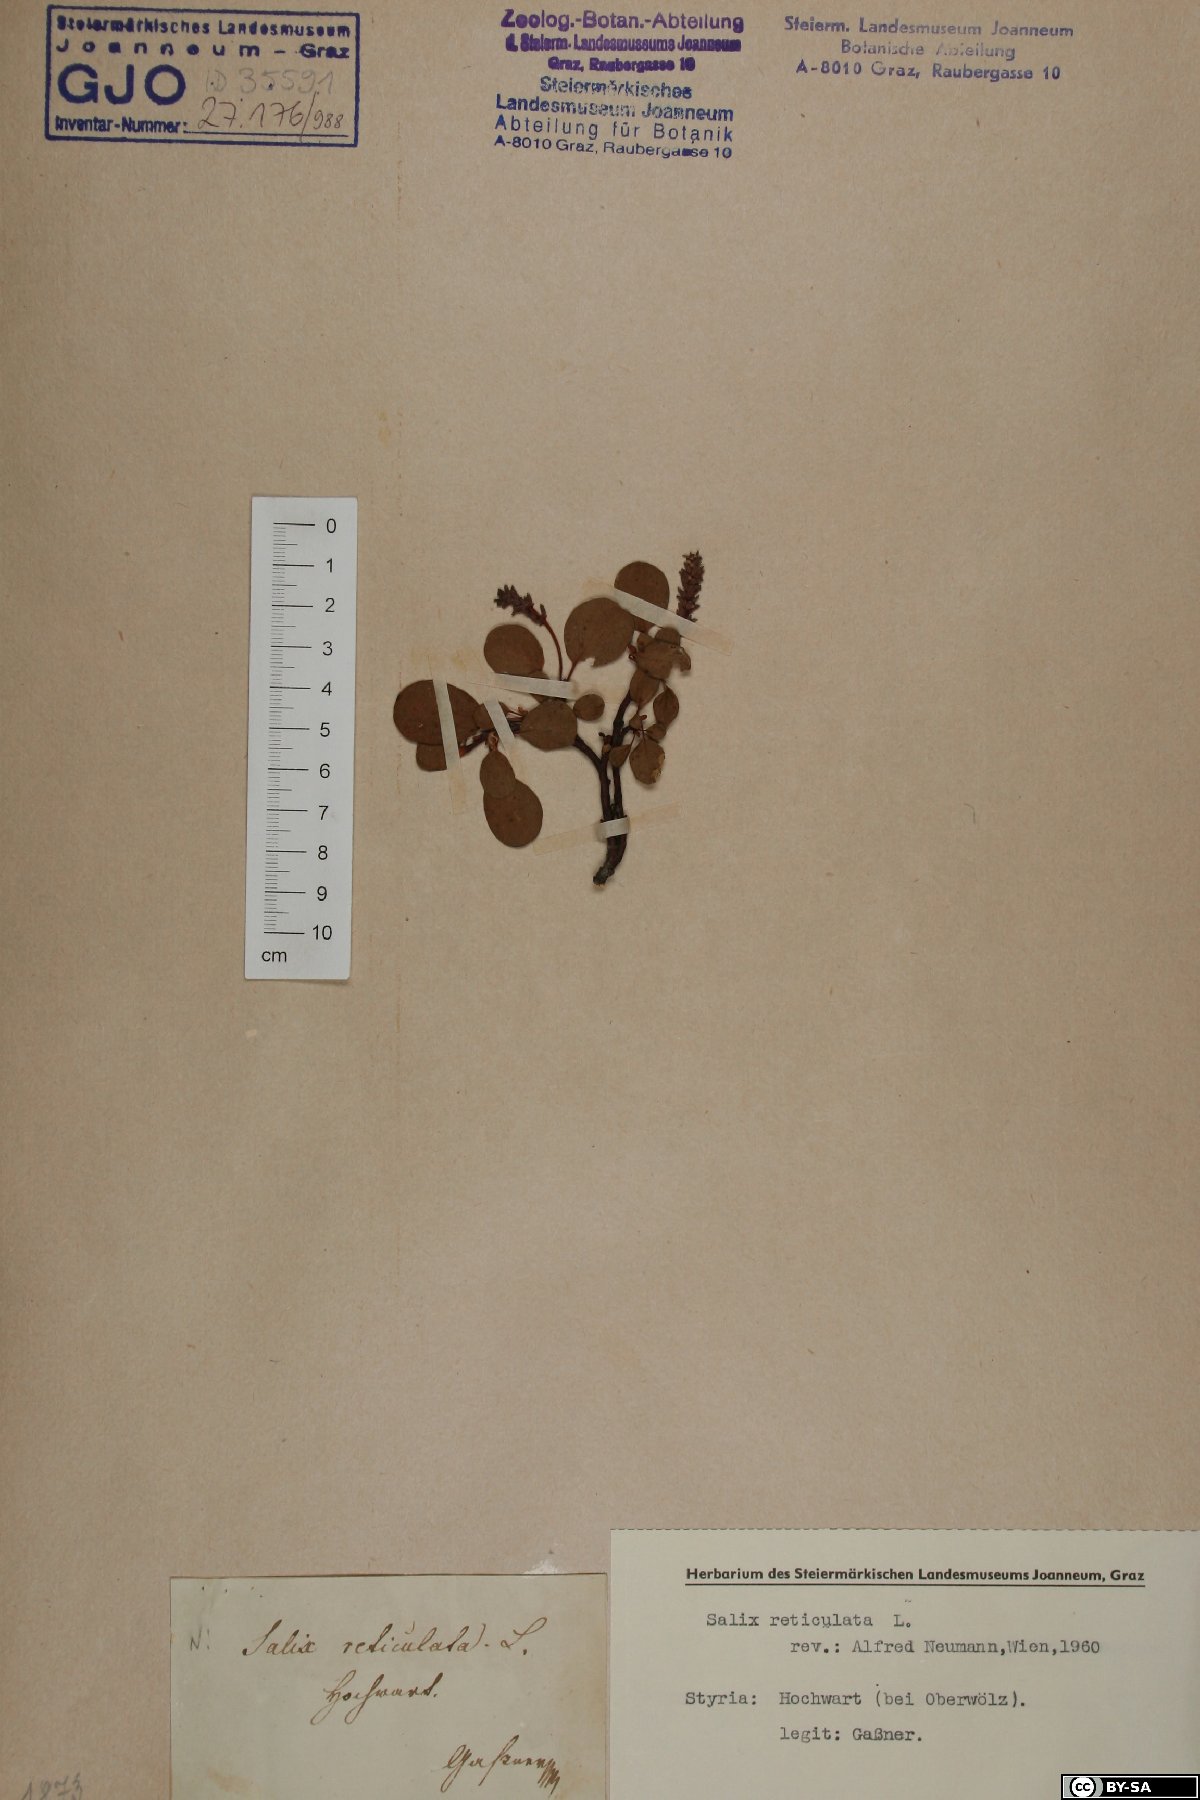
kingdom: Plantae
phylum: Tracheophyta
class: Magnoliopsida
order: Malpighiales
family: Salicaceae
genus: Salix
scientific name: Salix reticulata
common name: Net-leaved willow
